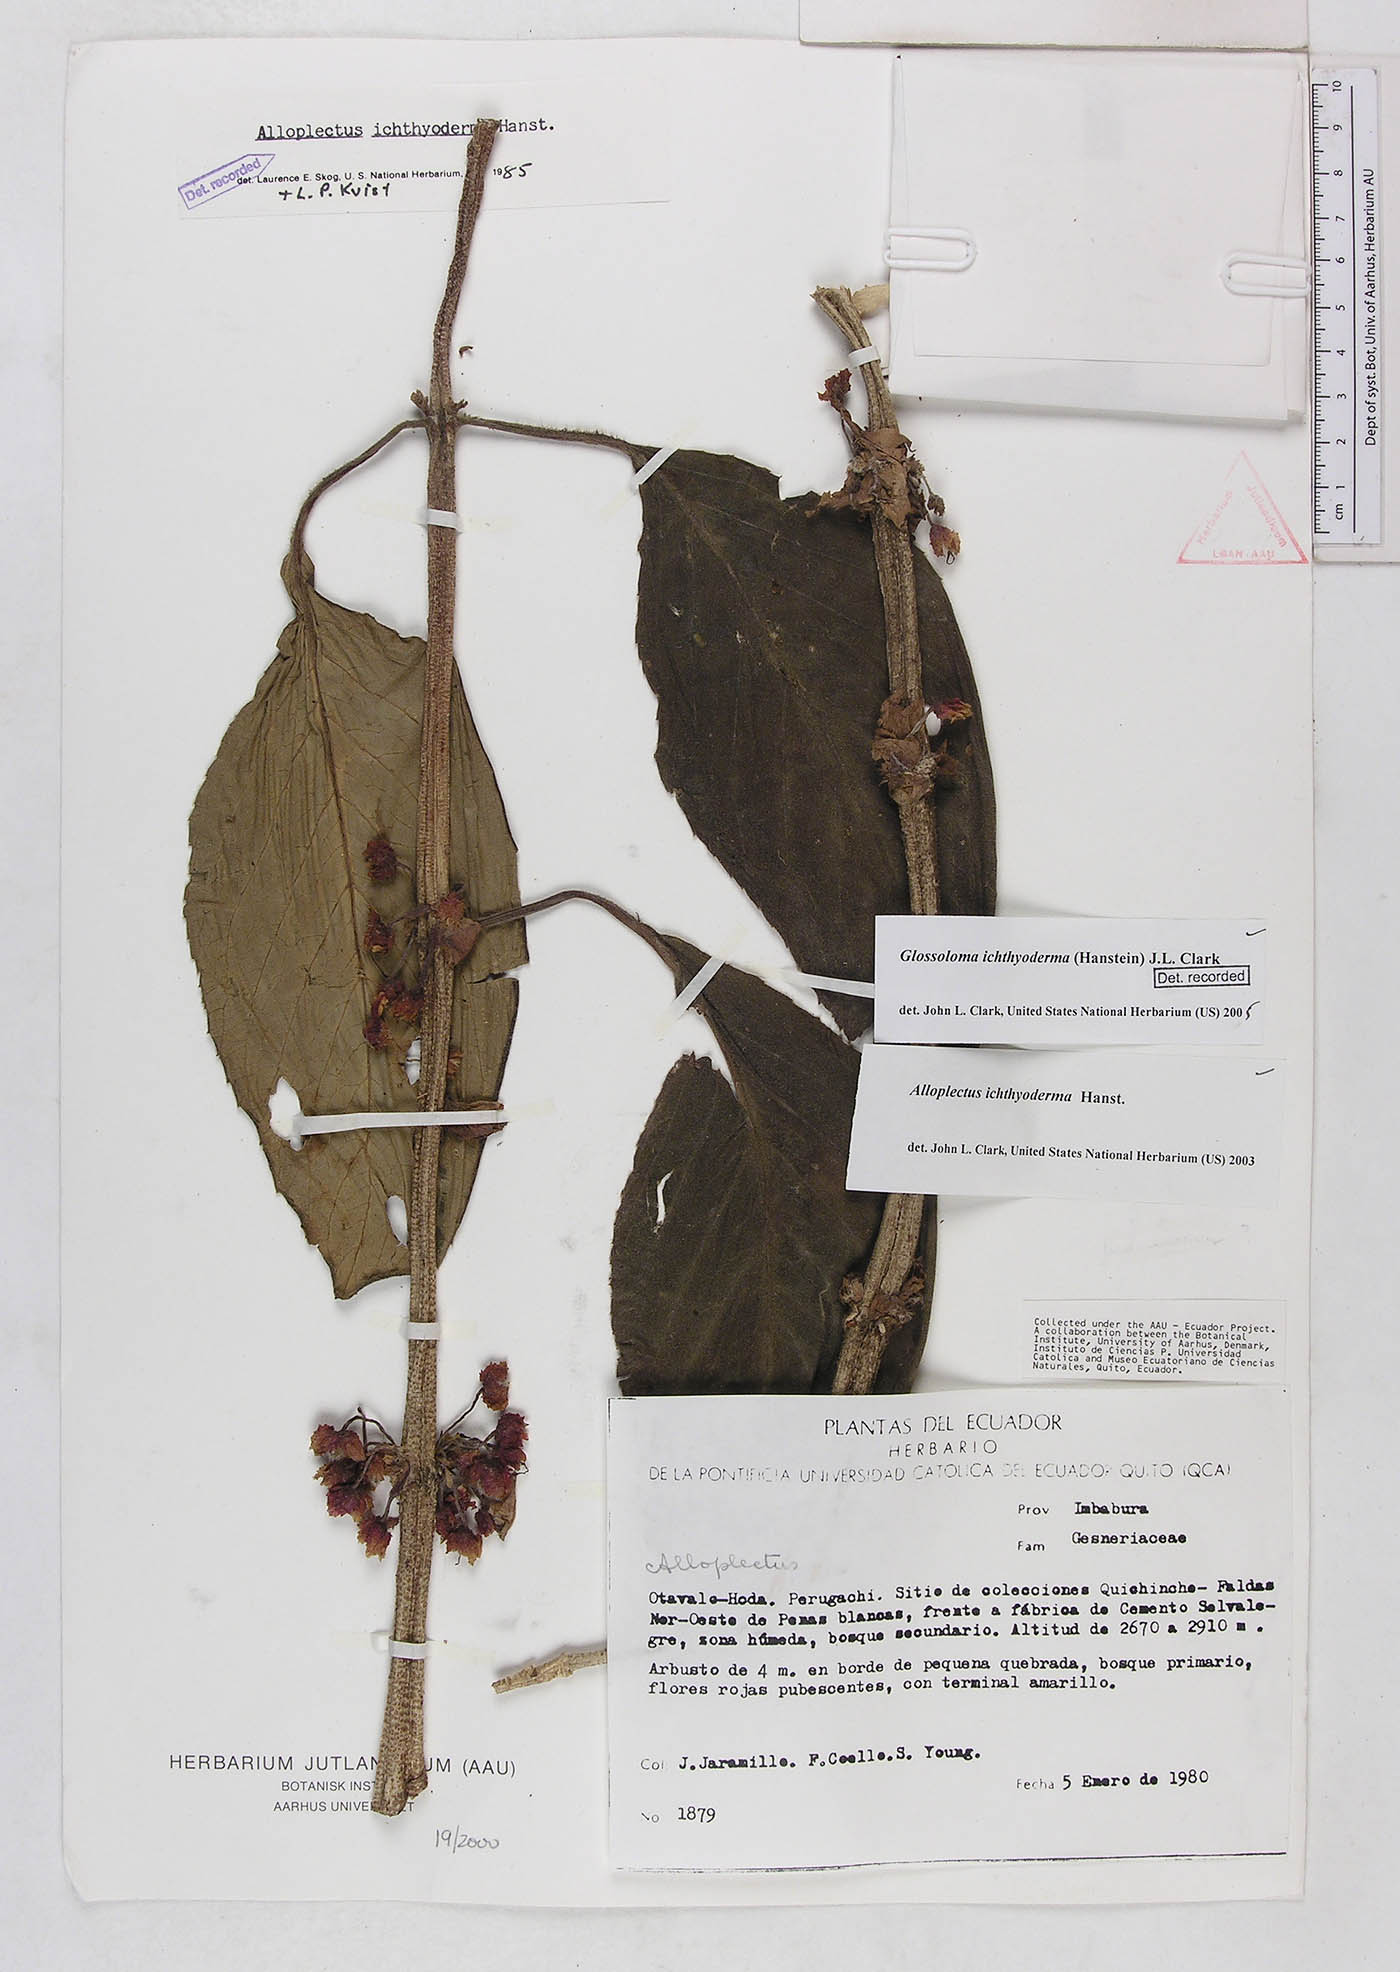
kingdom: Plantae
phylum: Tracheophyta
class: Magnoliopsida
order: Lamiales
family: Gesneriaceae
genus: Glossoloma
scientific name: Glossoloma ichthyoderma
